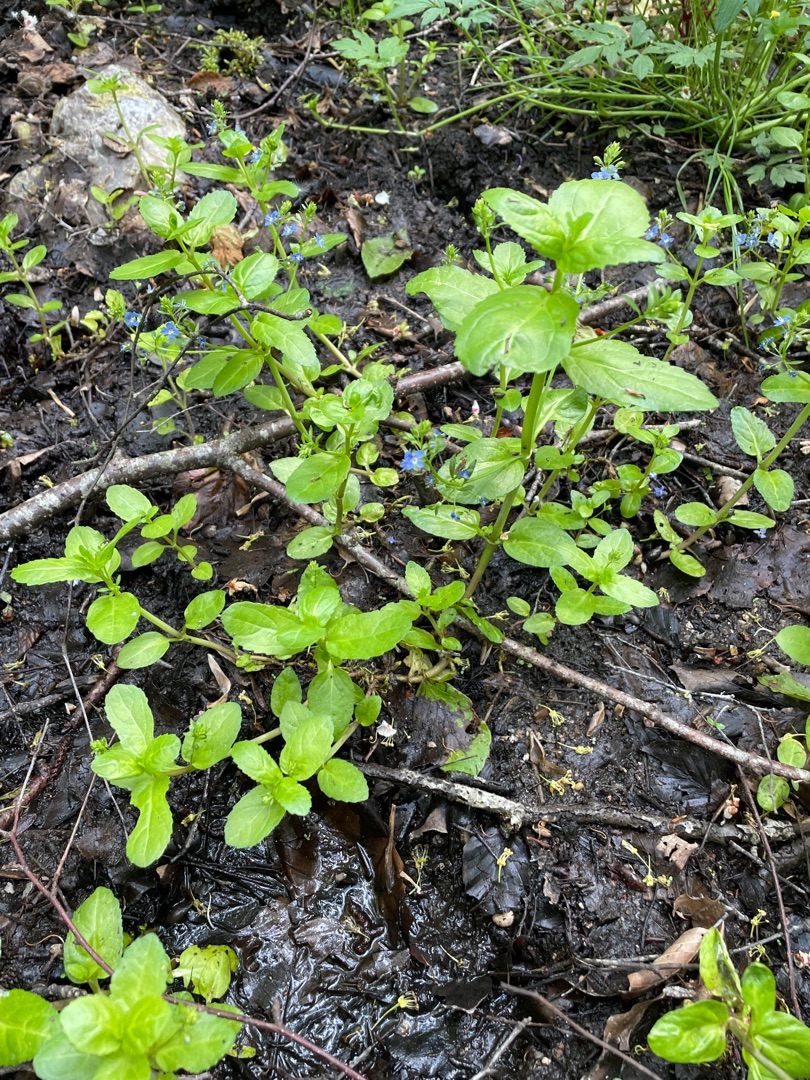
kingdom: Plantae
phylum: Tracheophyta
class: Magnoliopsida
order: Lamiales
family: Plantaginaceae
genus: Veronica
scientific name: Veronica beccabunga
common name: Tykbladet ærenpris
